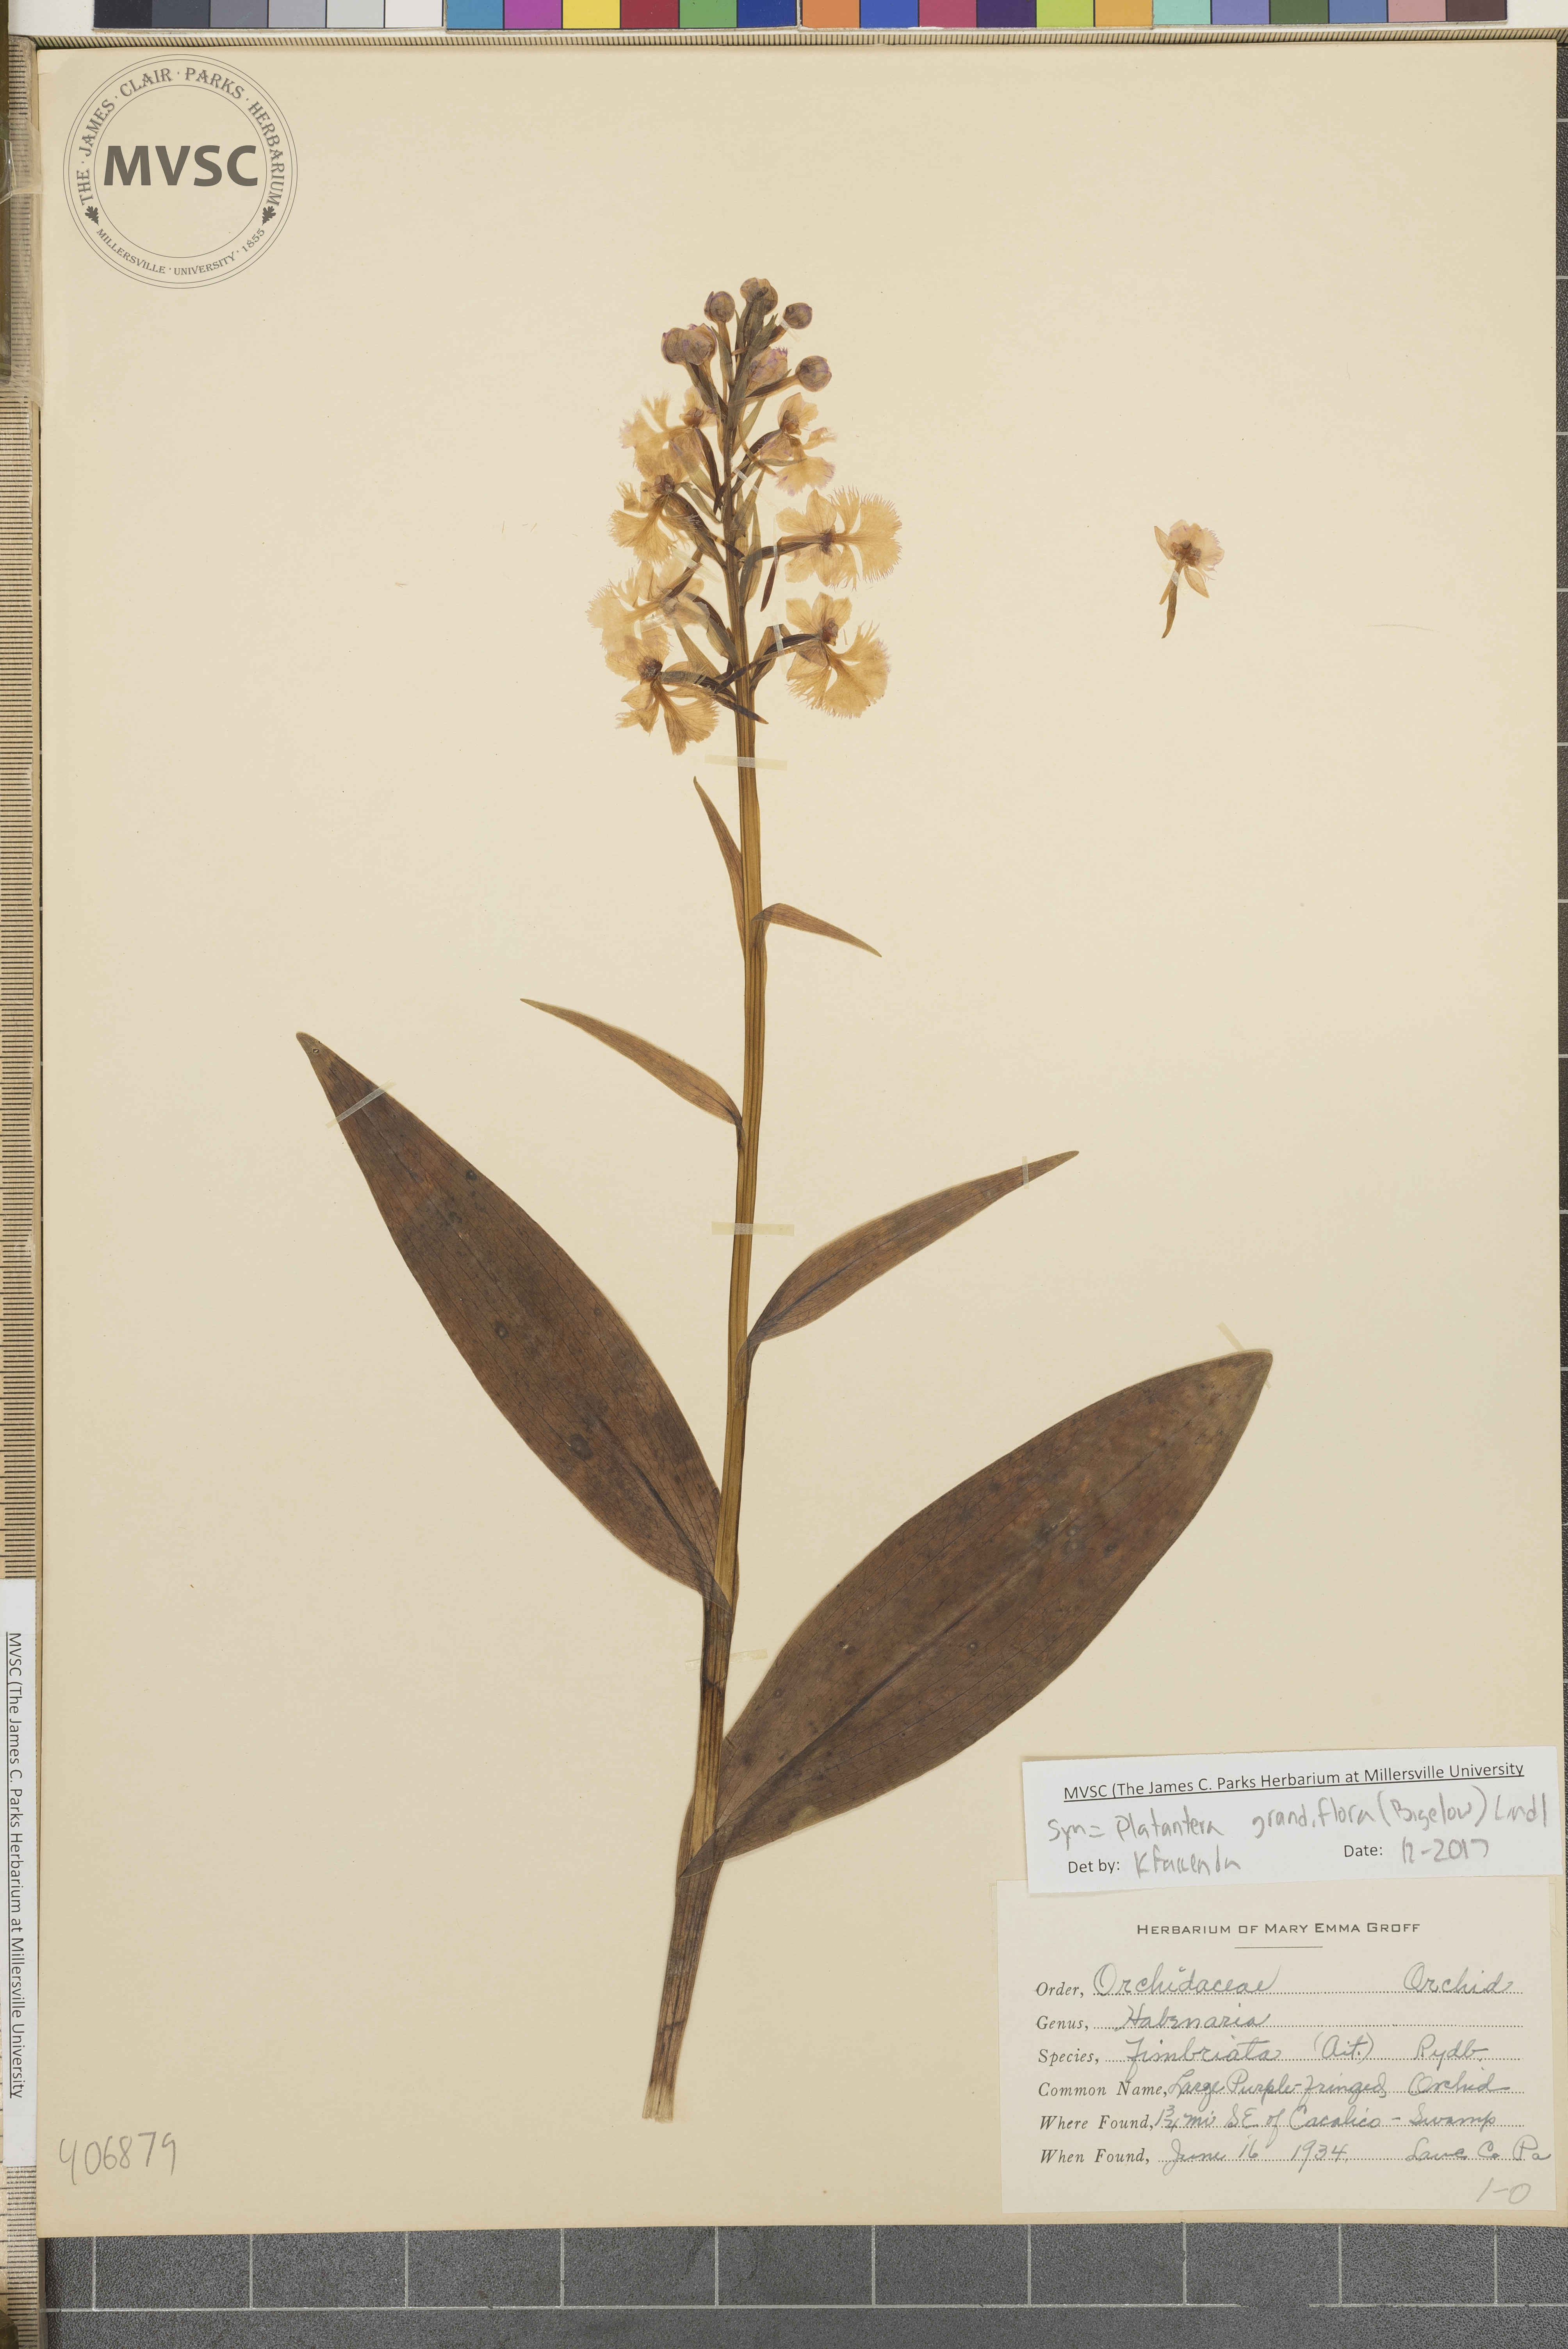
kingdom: Plantae
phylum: Tracheophyta
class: Liliopsida
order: Asparagales
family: Orchidaceae
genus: Platanthera
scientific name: Platanthera grandiflora
